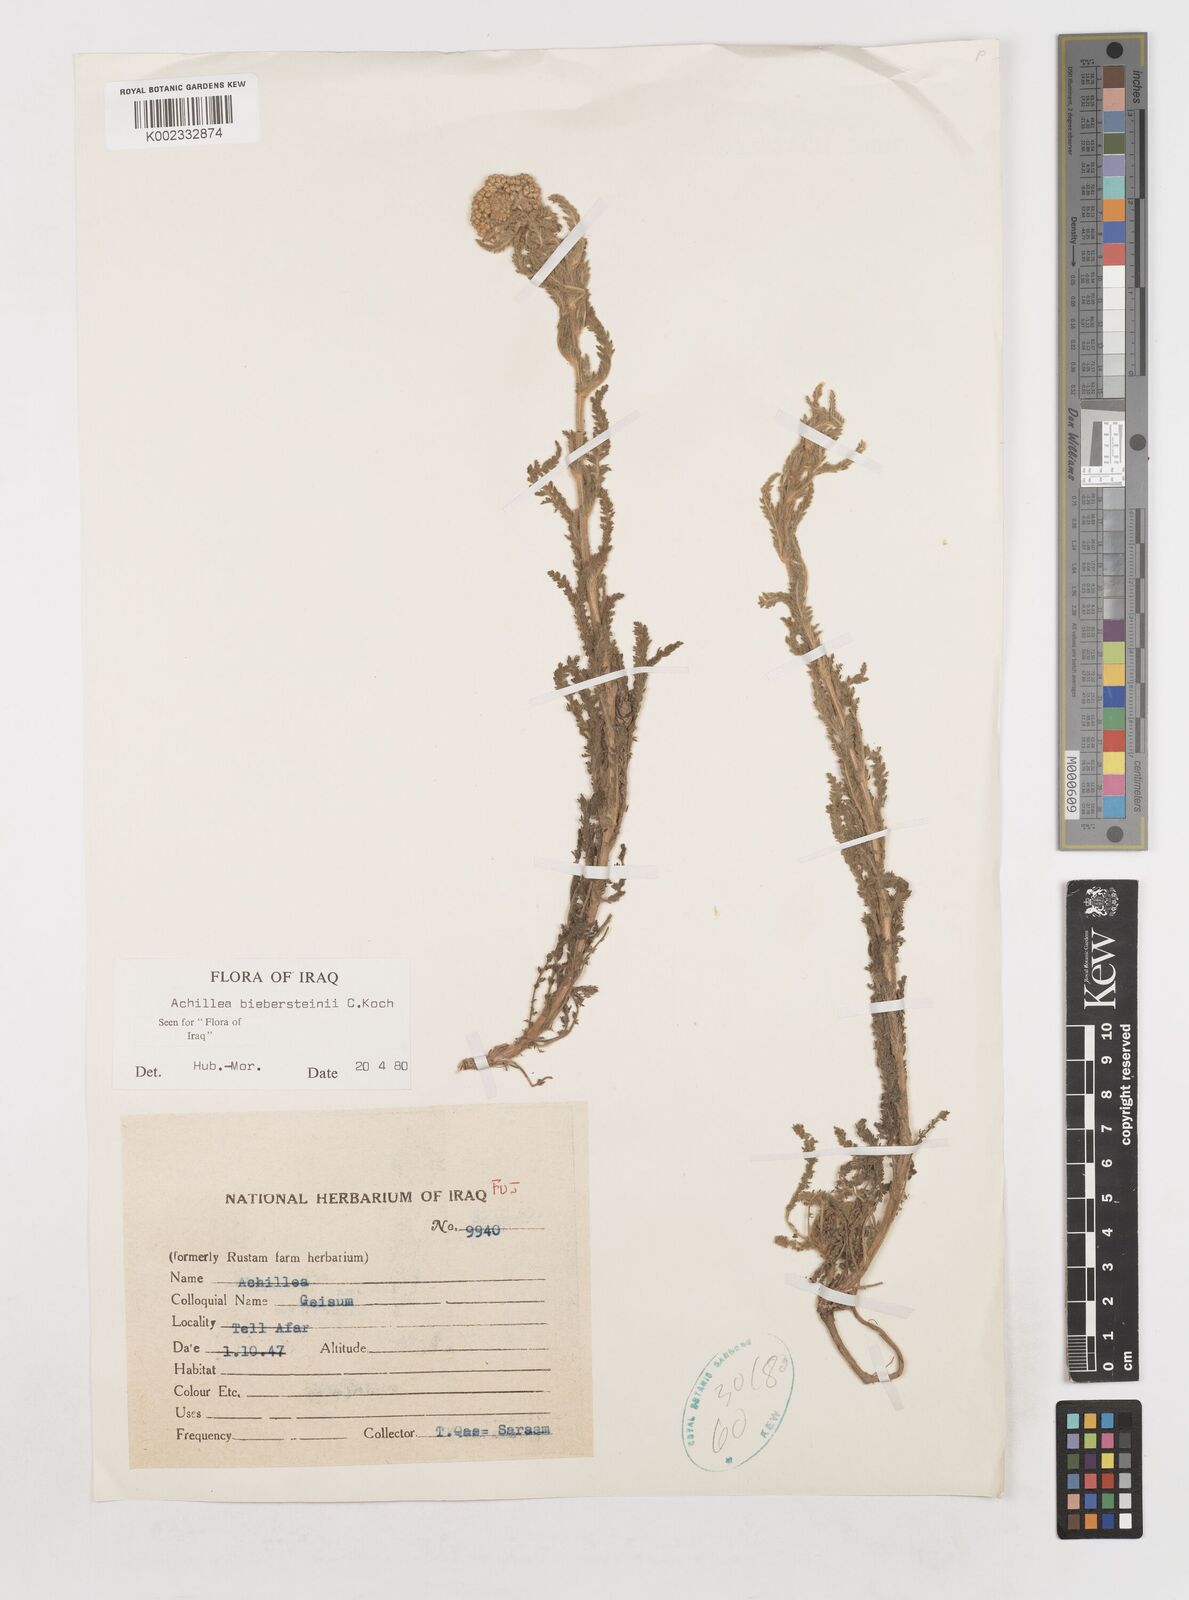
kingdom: Plantae
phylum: Tracheophyta
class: Magnoliopsida
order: Asterales
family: Asteraceae
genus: Achillea
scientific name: Achillea arabica
